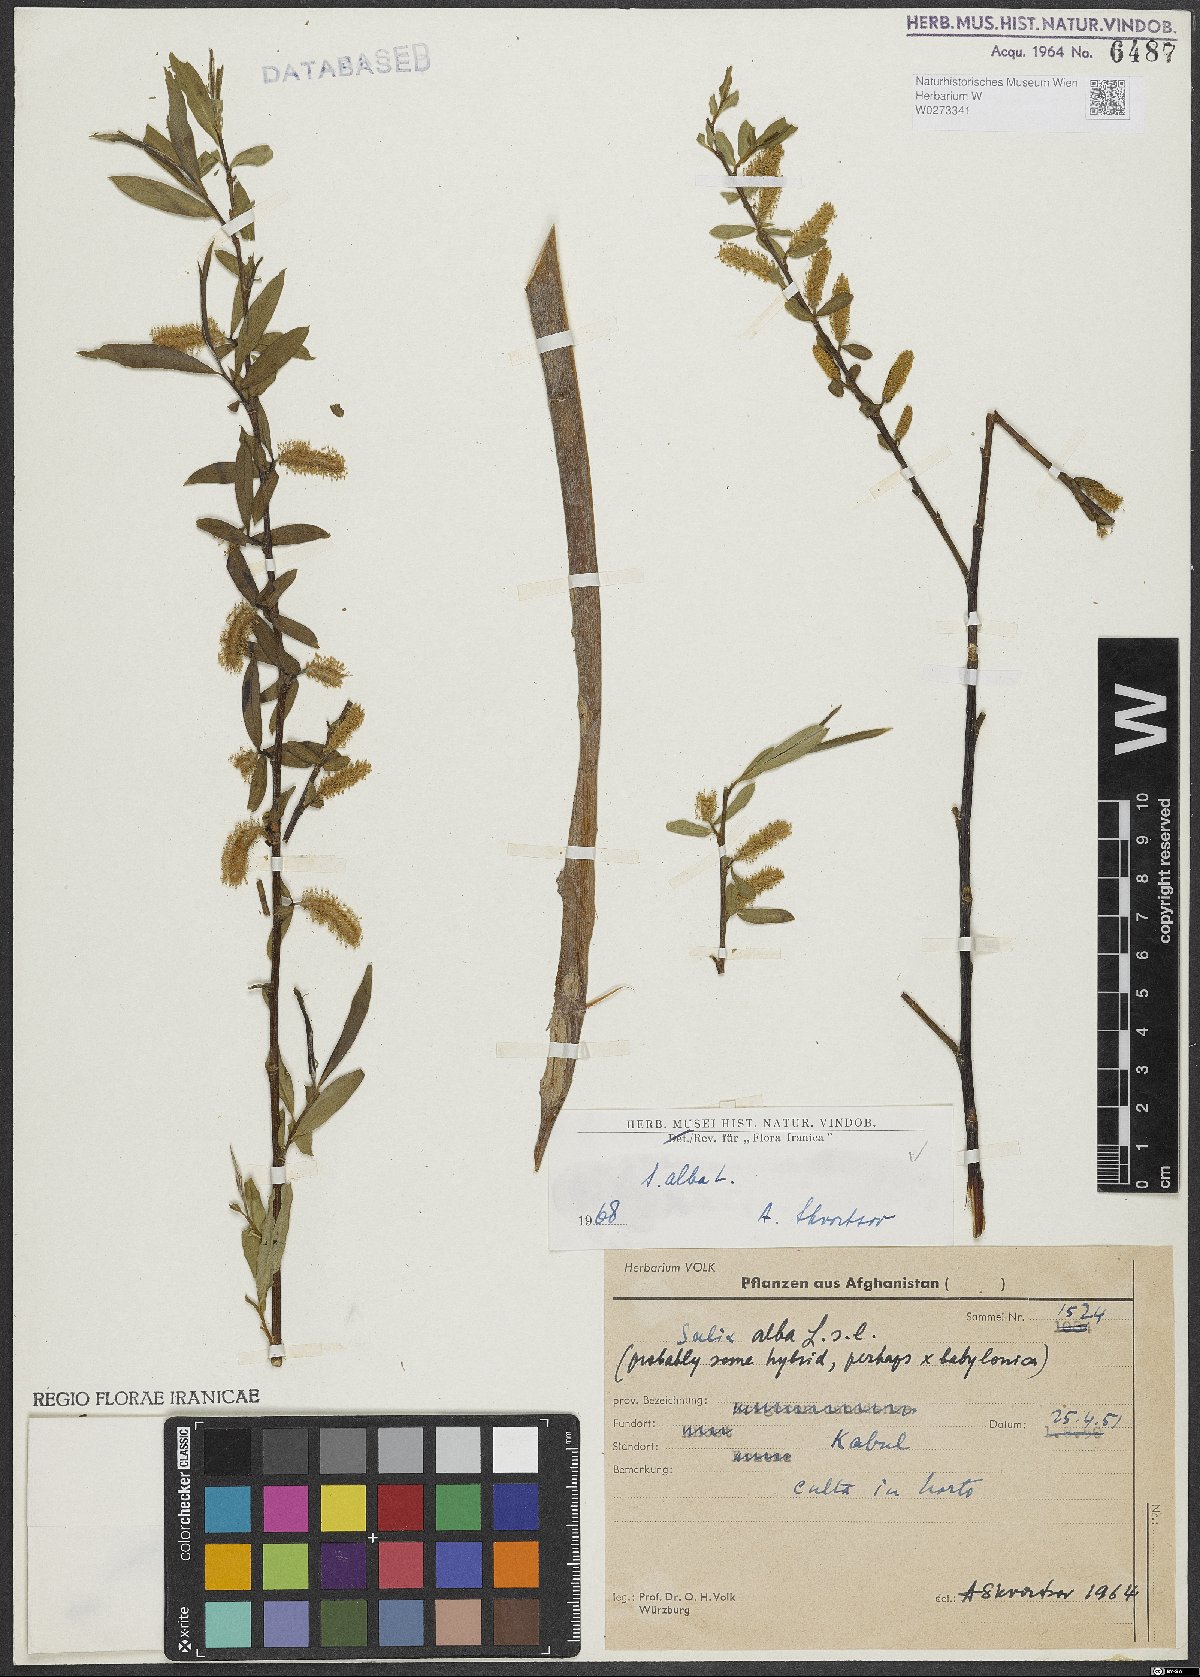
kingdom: Plantae
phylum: Tracheophyta
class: Magnoliopsida
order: Malpighiales
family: Salicaceae
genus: Salix
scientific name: Salix alba
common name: White willow
